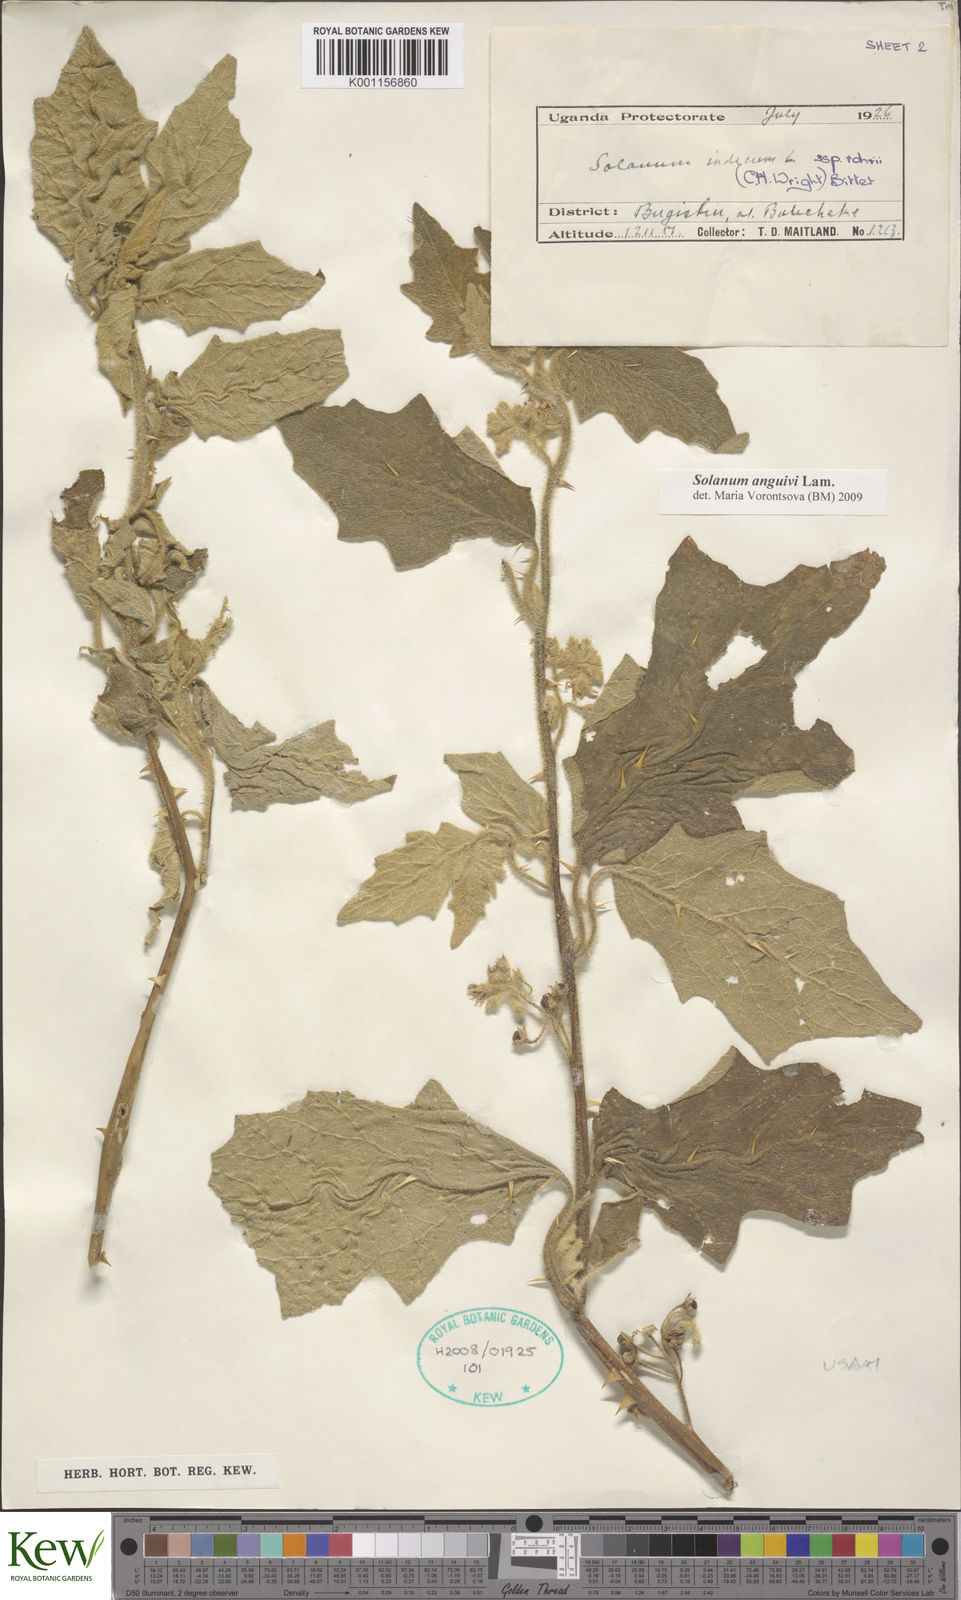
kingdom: Plantae
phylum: Tracheophyta
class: Magnoliopsida
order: Solanales
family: Solanaceae
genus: Solanum
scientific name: Solanum anguivi
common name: Forest bitterberry
